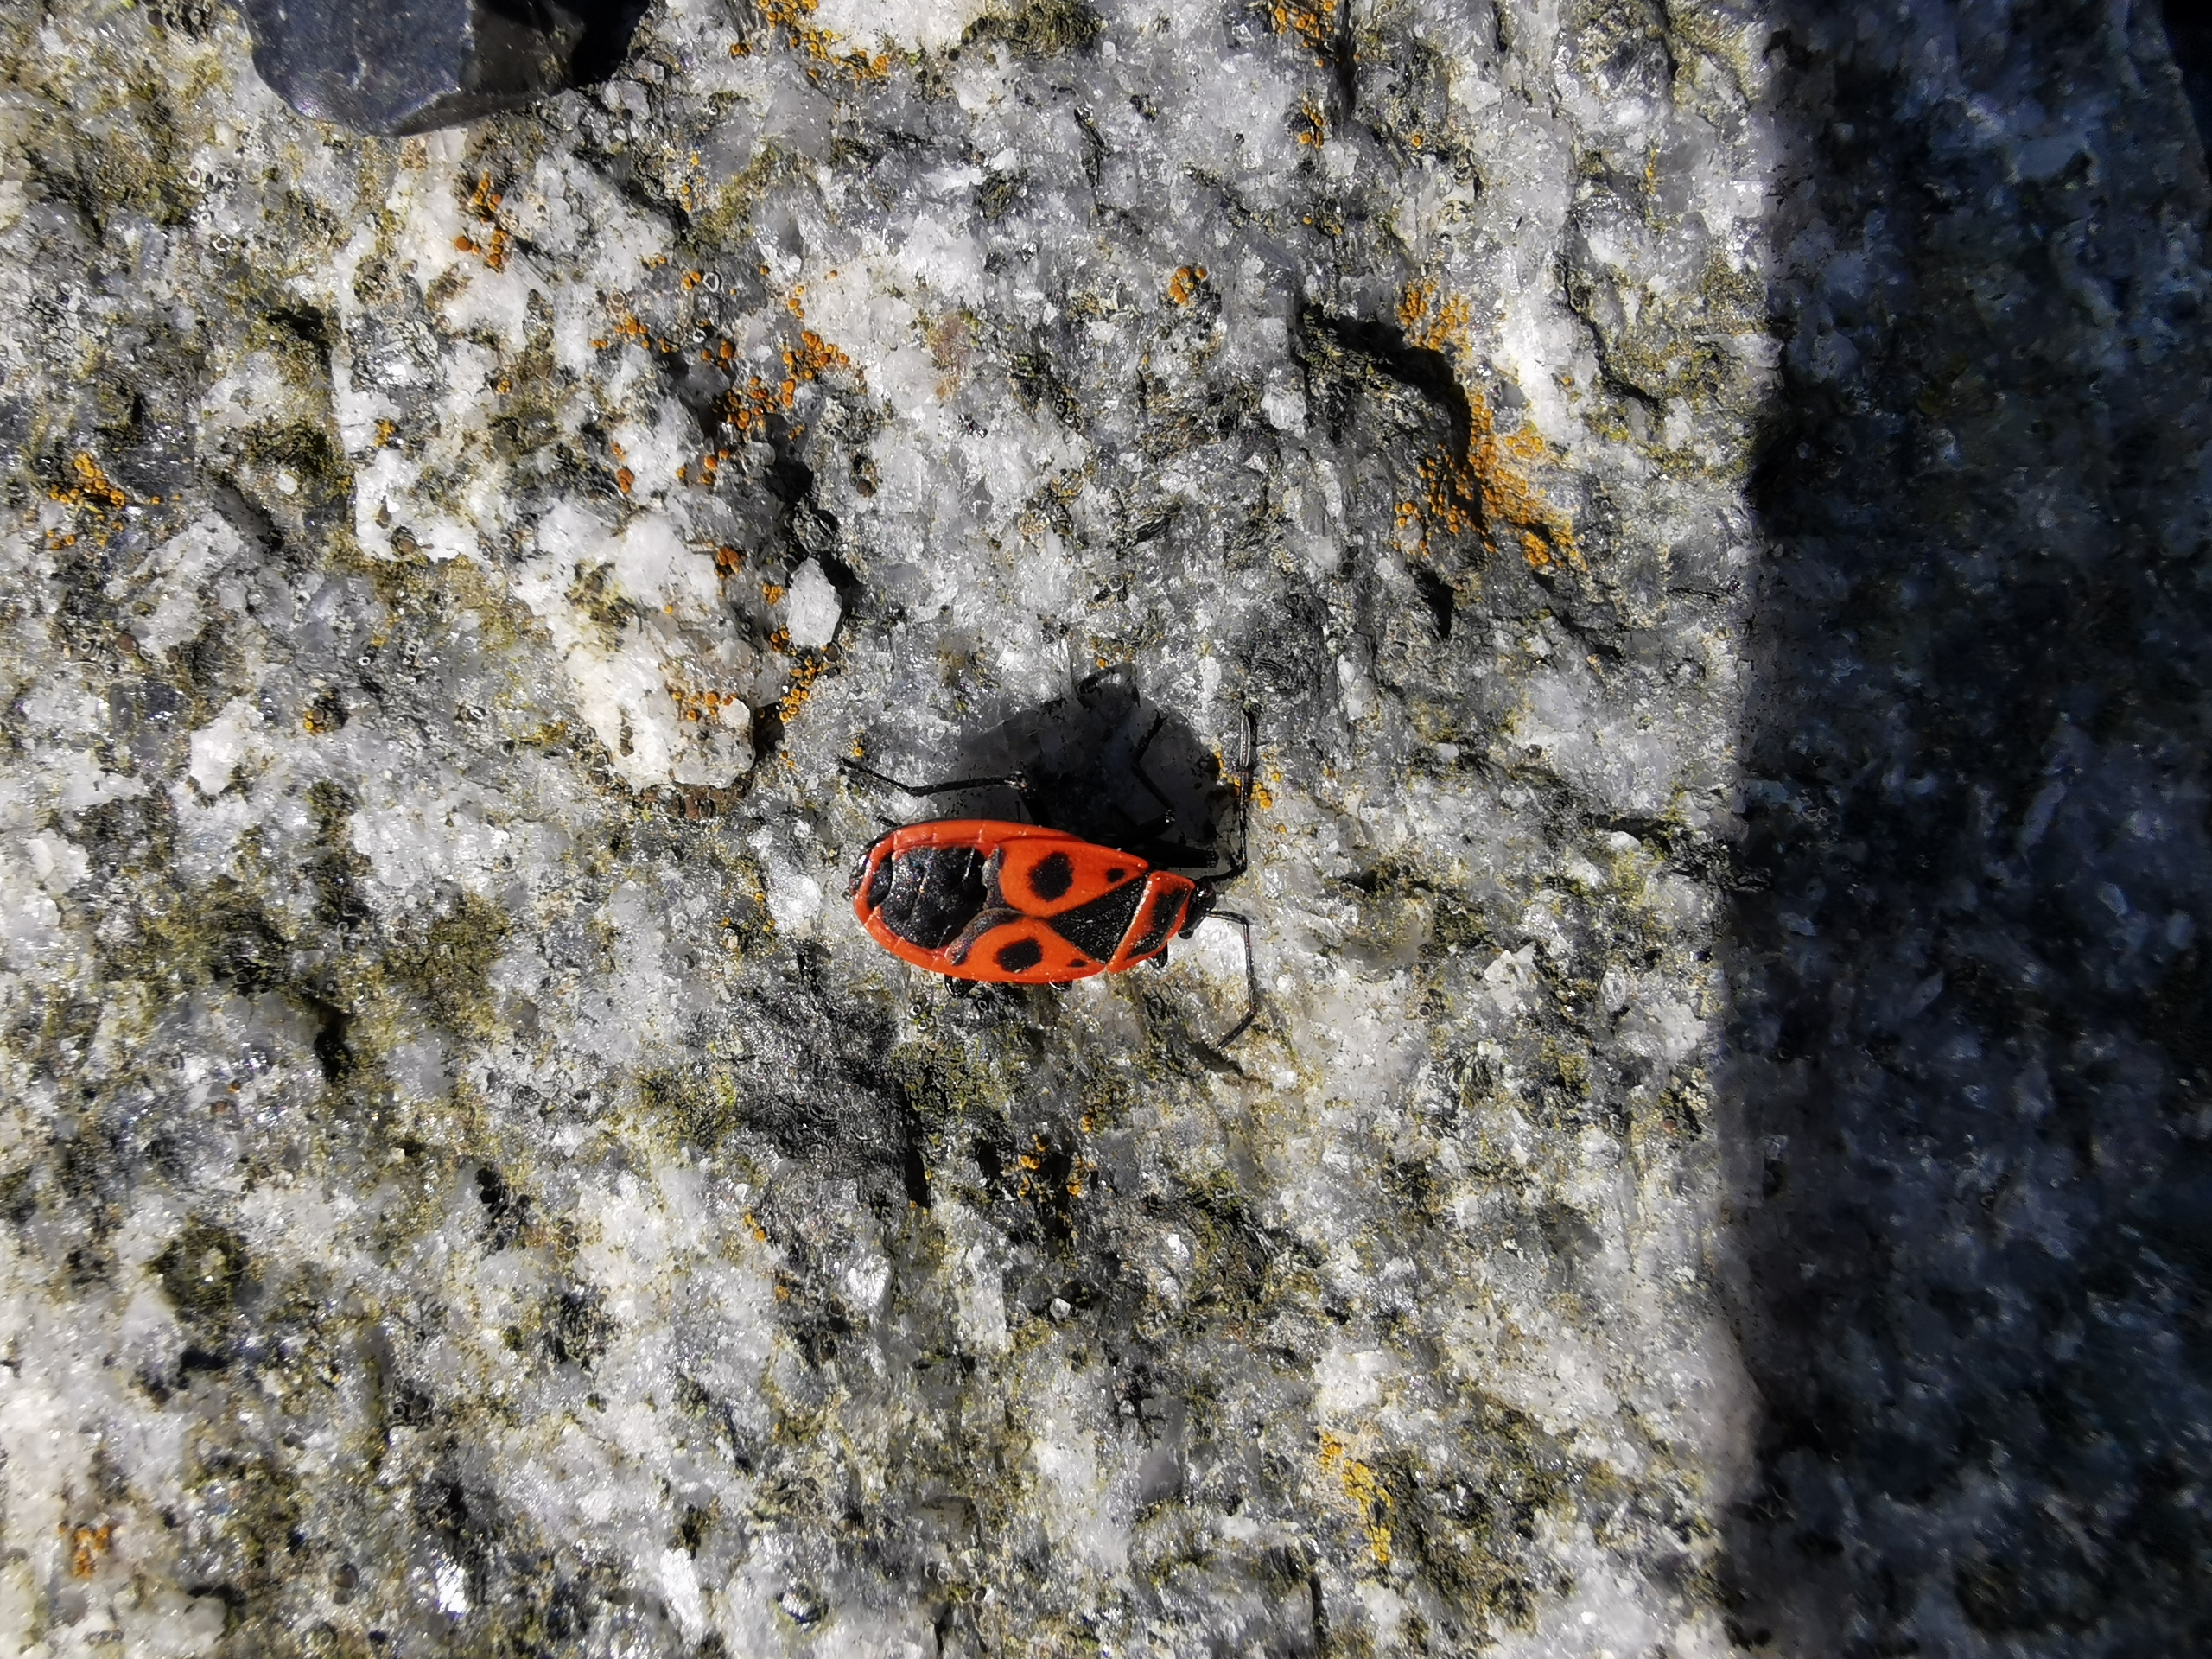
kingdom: Animalia
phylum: Arthropoda
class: Insecta
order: Hemiptera
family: Pyrrhocoridae
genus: Pyrrhocoris
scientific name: Pyrrhocoris apterus
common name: Ildtæge
